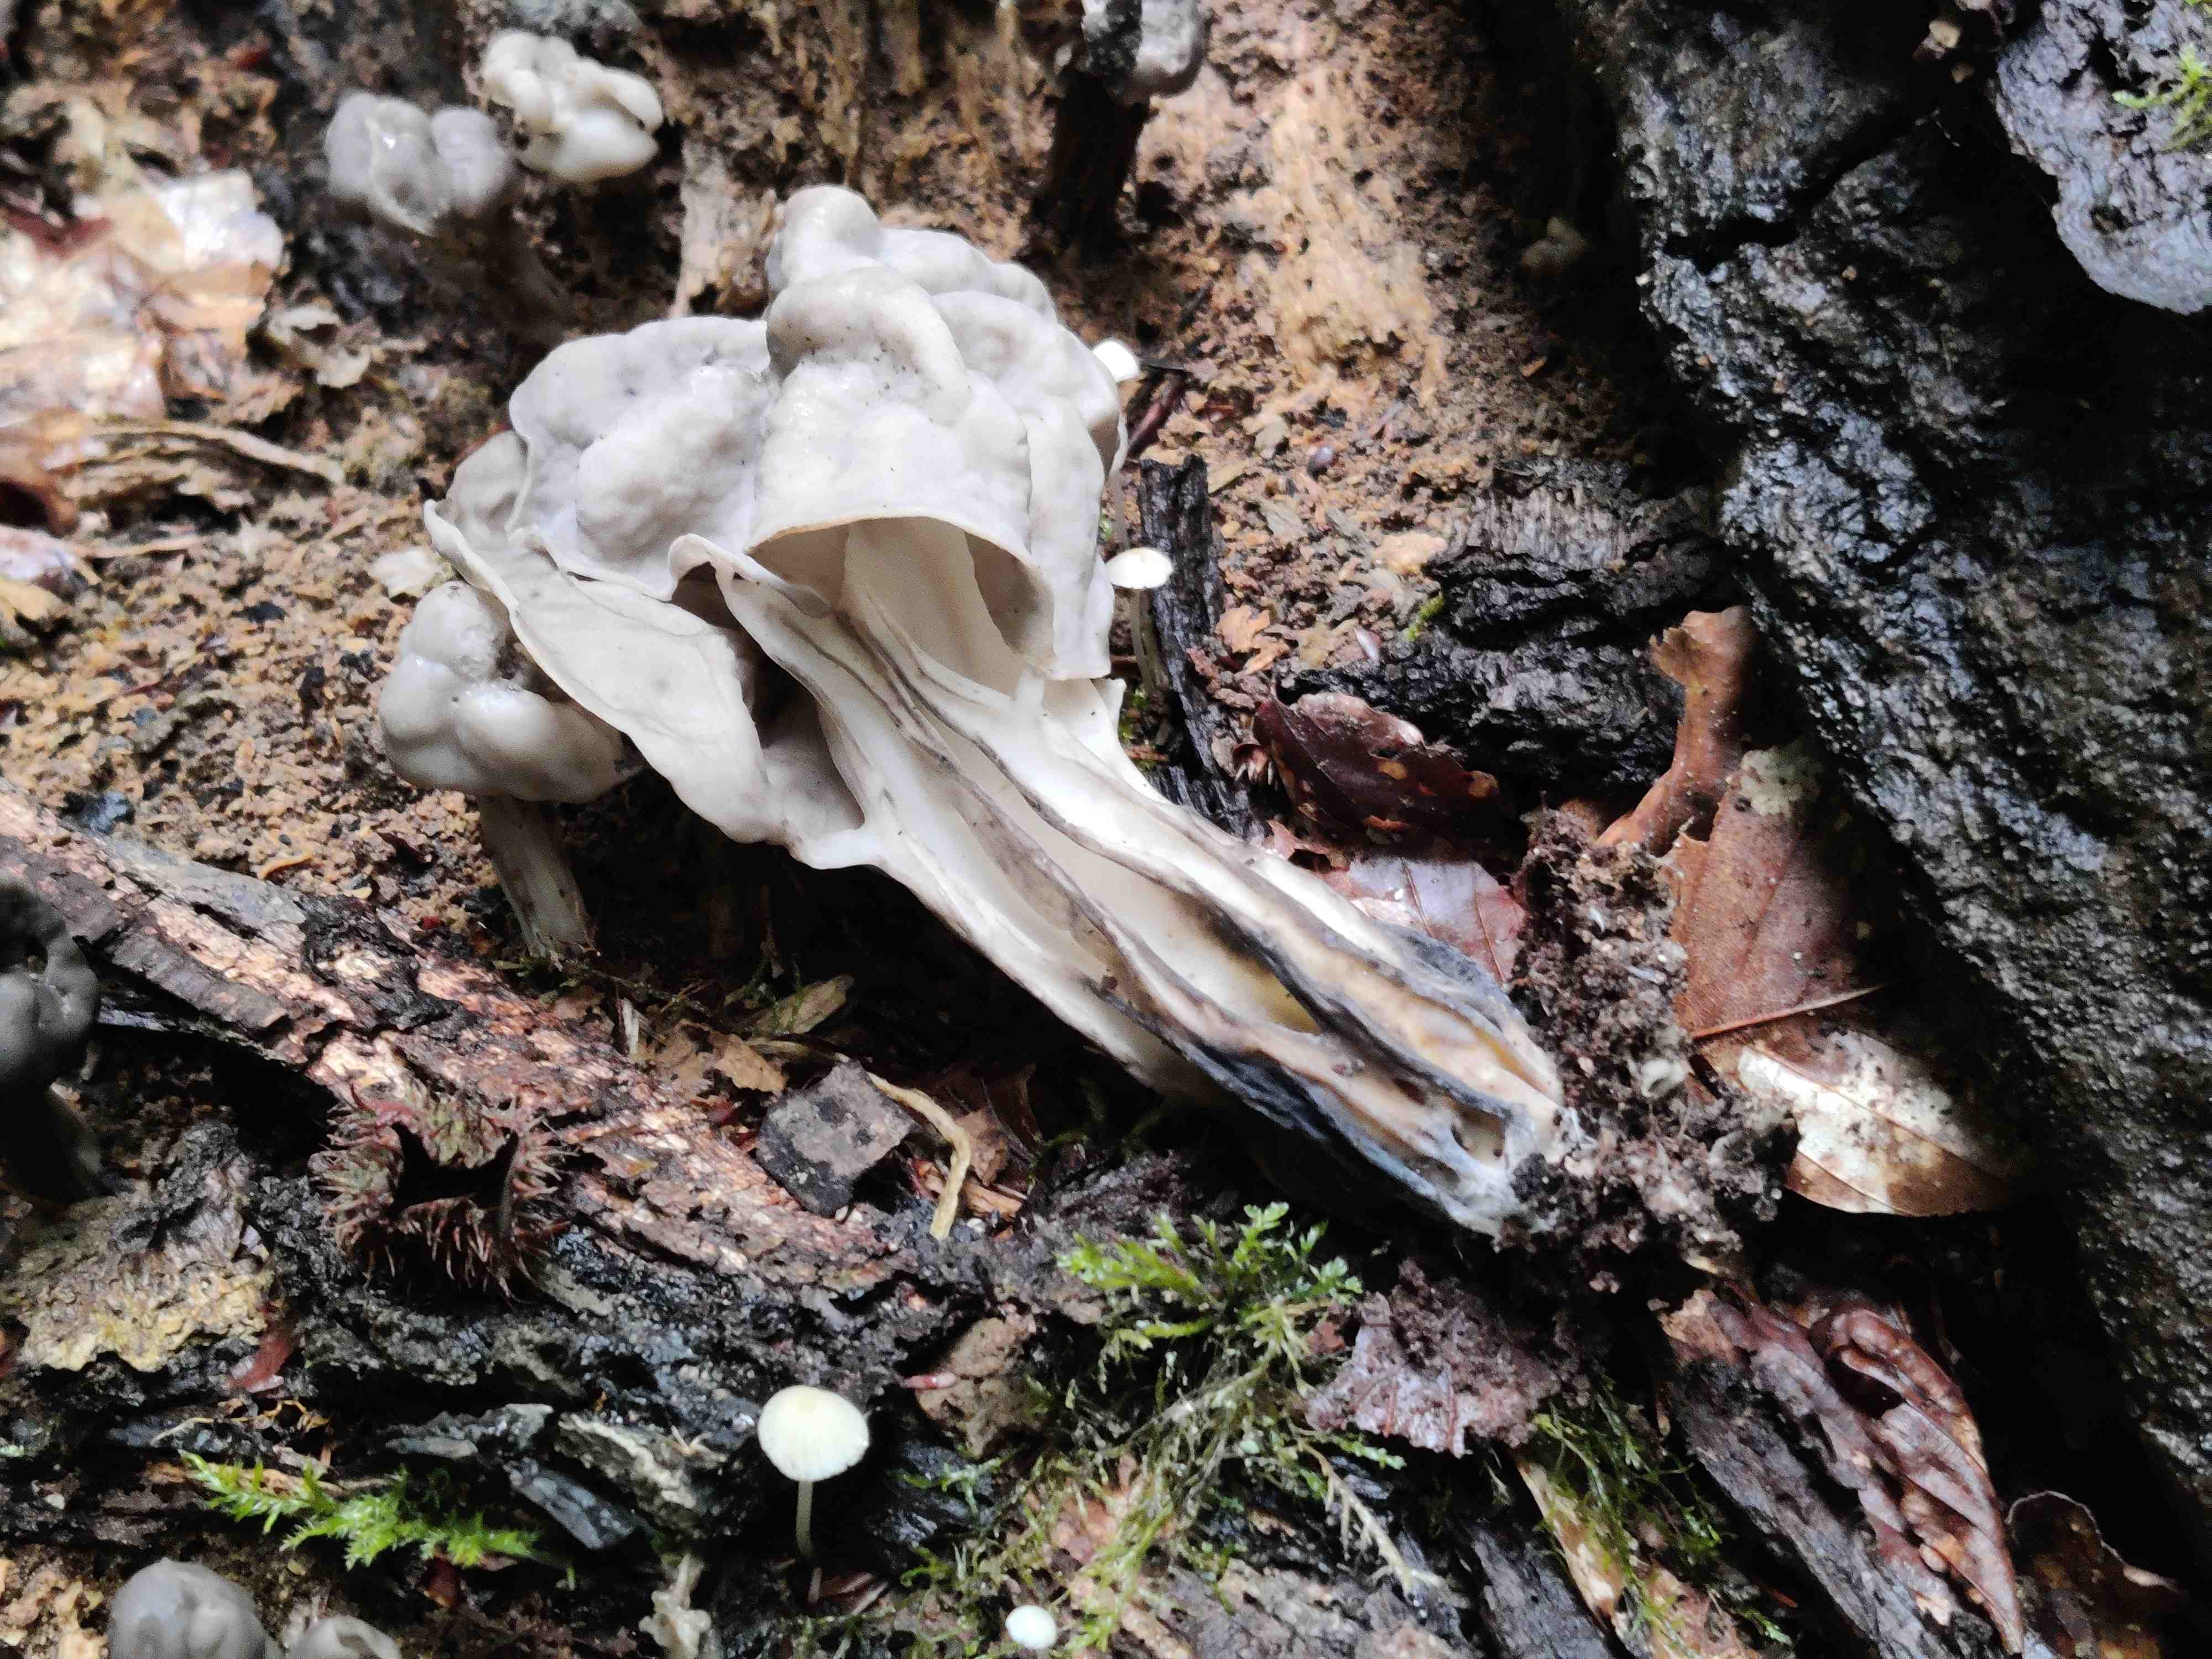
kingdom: Fungi
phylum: Ascomycota
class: Pezizomycetes
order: Pezizales
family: Helvellaceae
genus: Helvella
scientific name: Helvella lacunosa
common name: grubet foldhat
